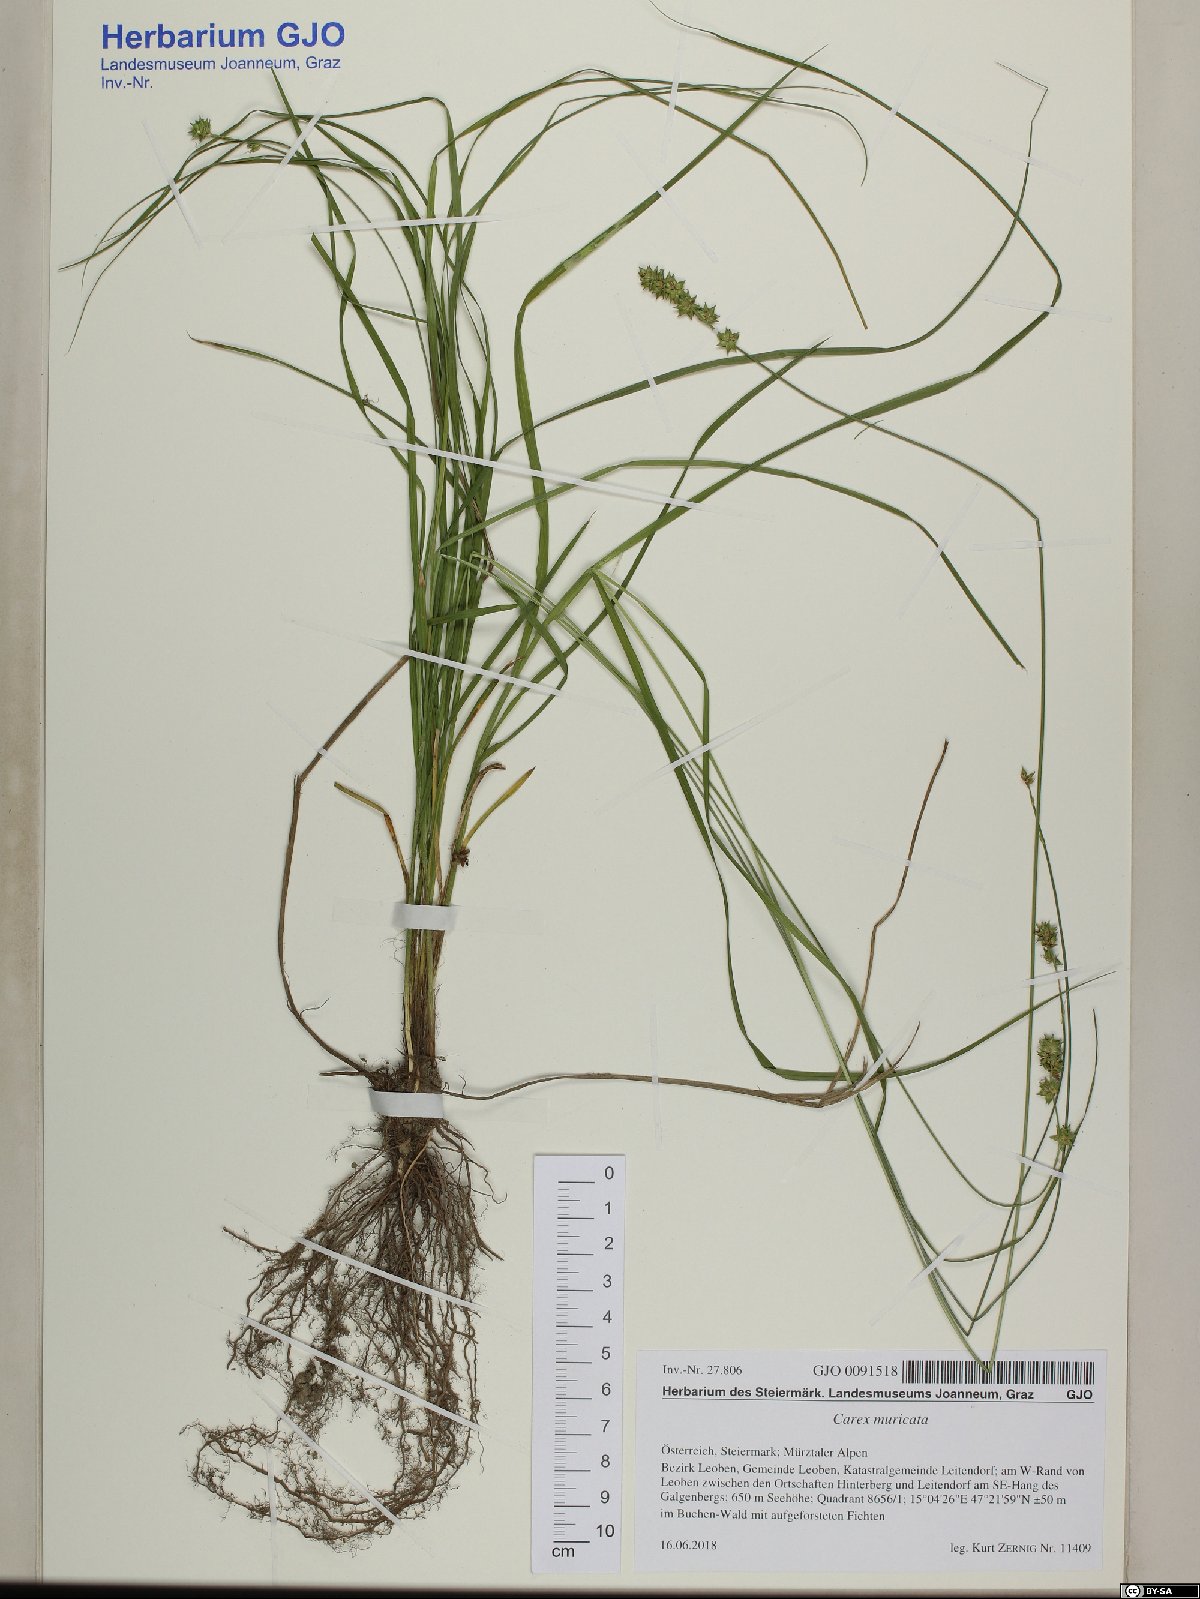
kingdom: Plantae
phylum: Tracheophyta
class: Liliopsida
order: Poales
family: Cyperaceae
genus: Carex
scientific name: Carex muricata
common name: Rough sedge
